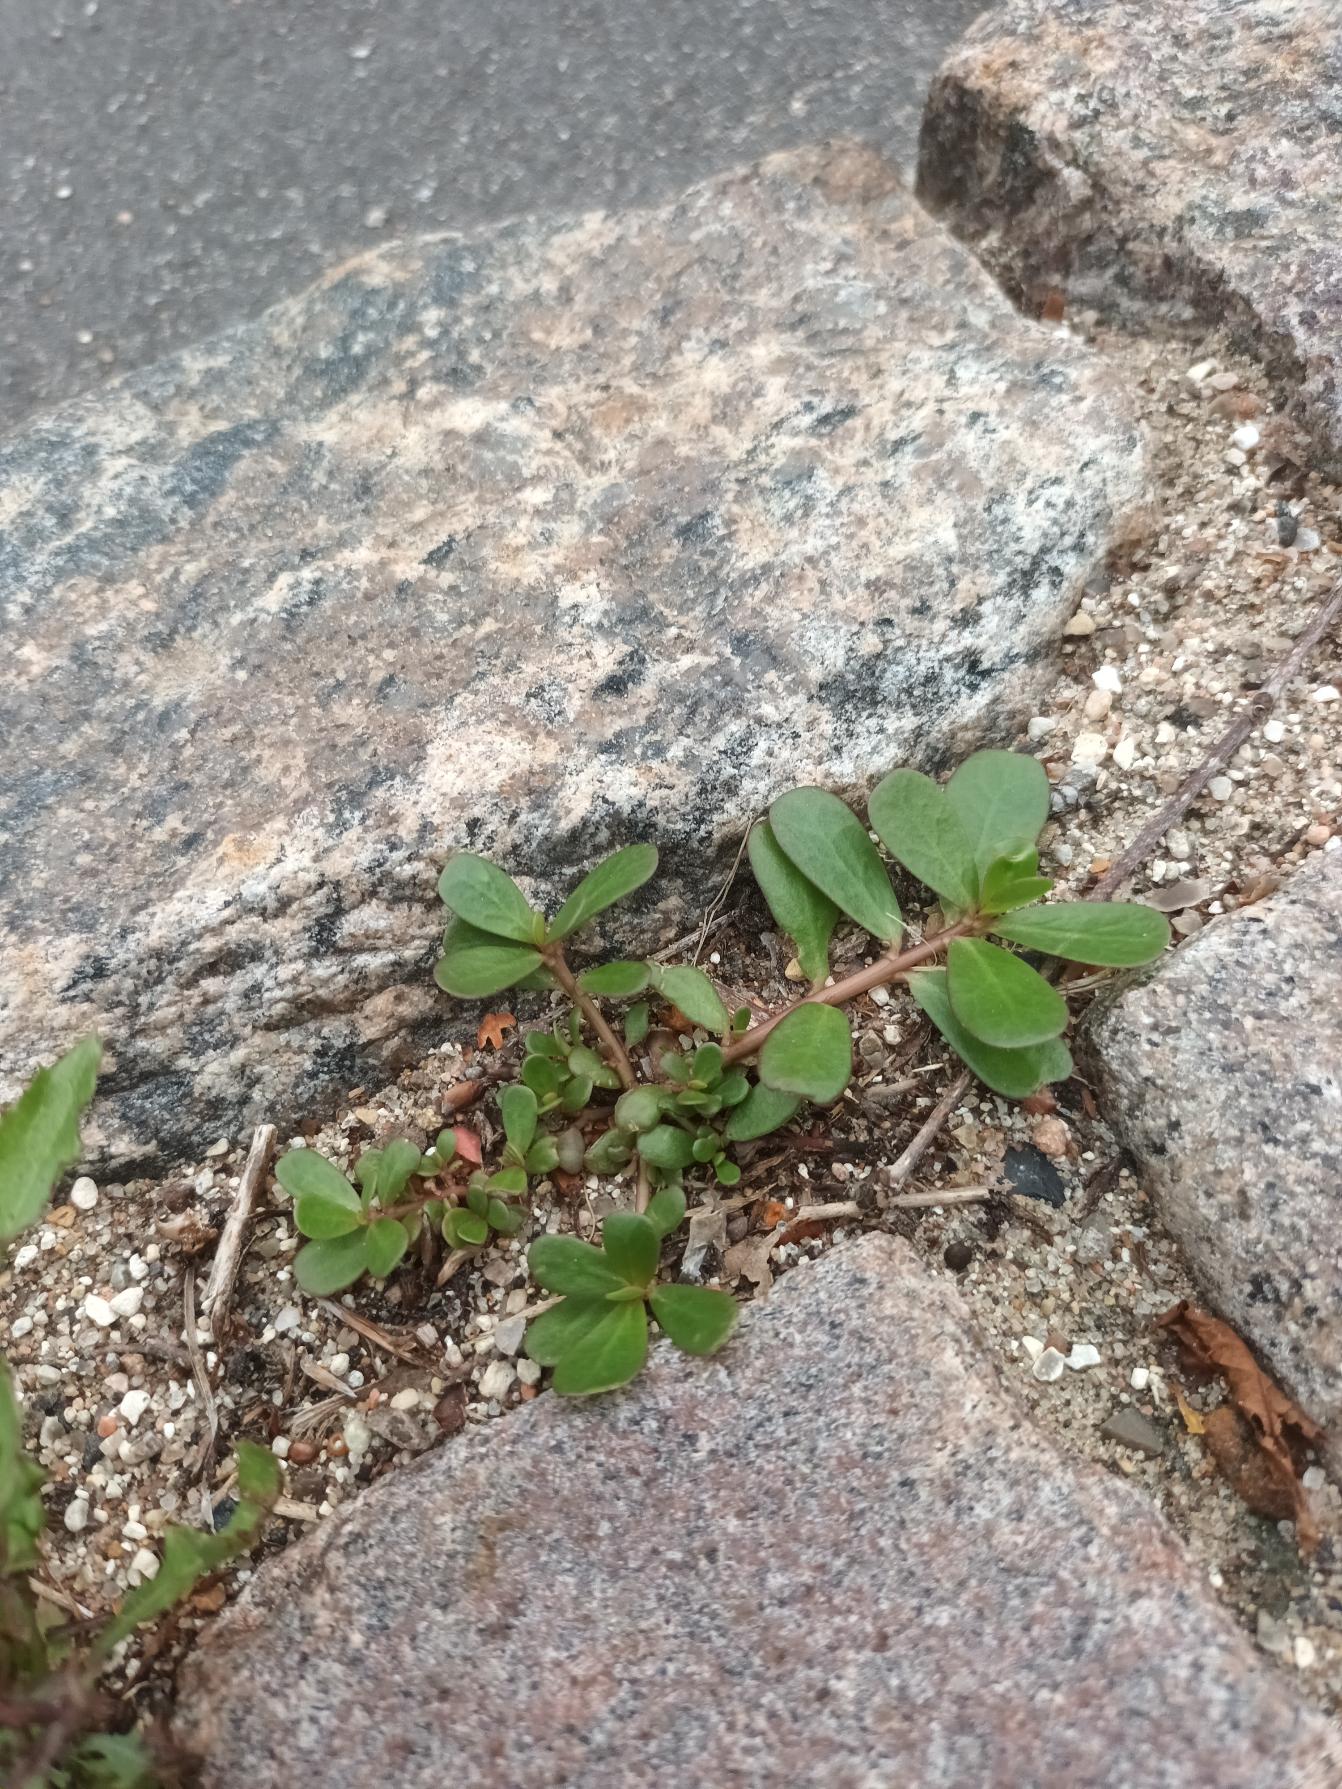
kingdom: Plantae
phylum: Tracheophyta
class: Magnoliopsida
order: Caryophyllales
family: Portulacaceae
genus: Portulaca
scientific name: Portulaca oleracea
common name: Portulak
